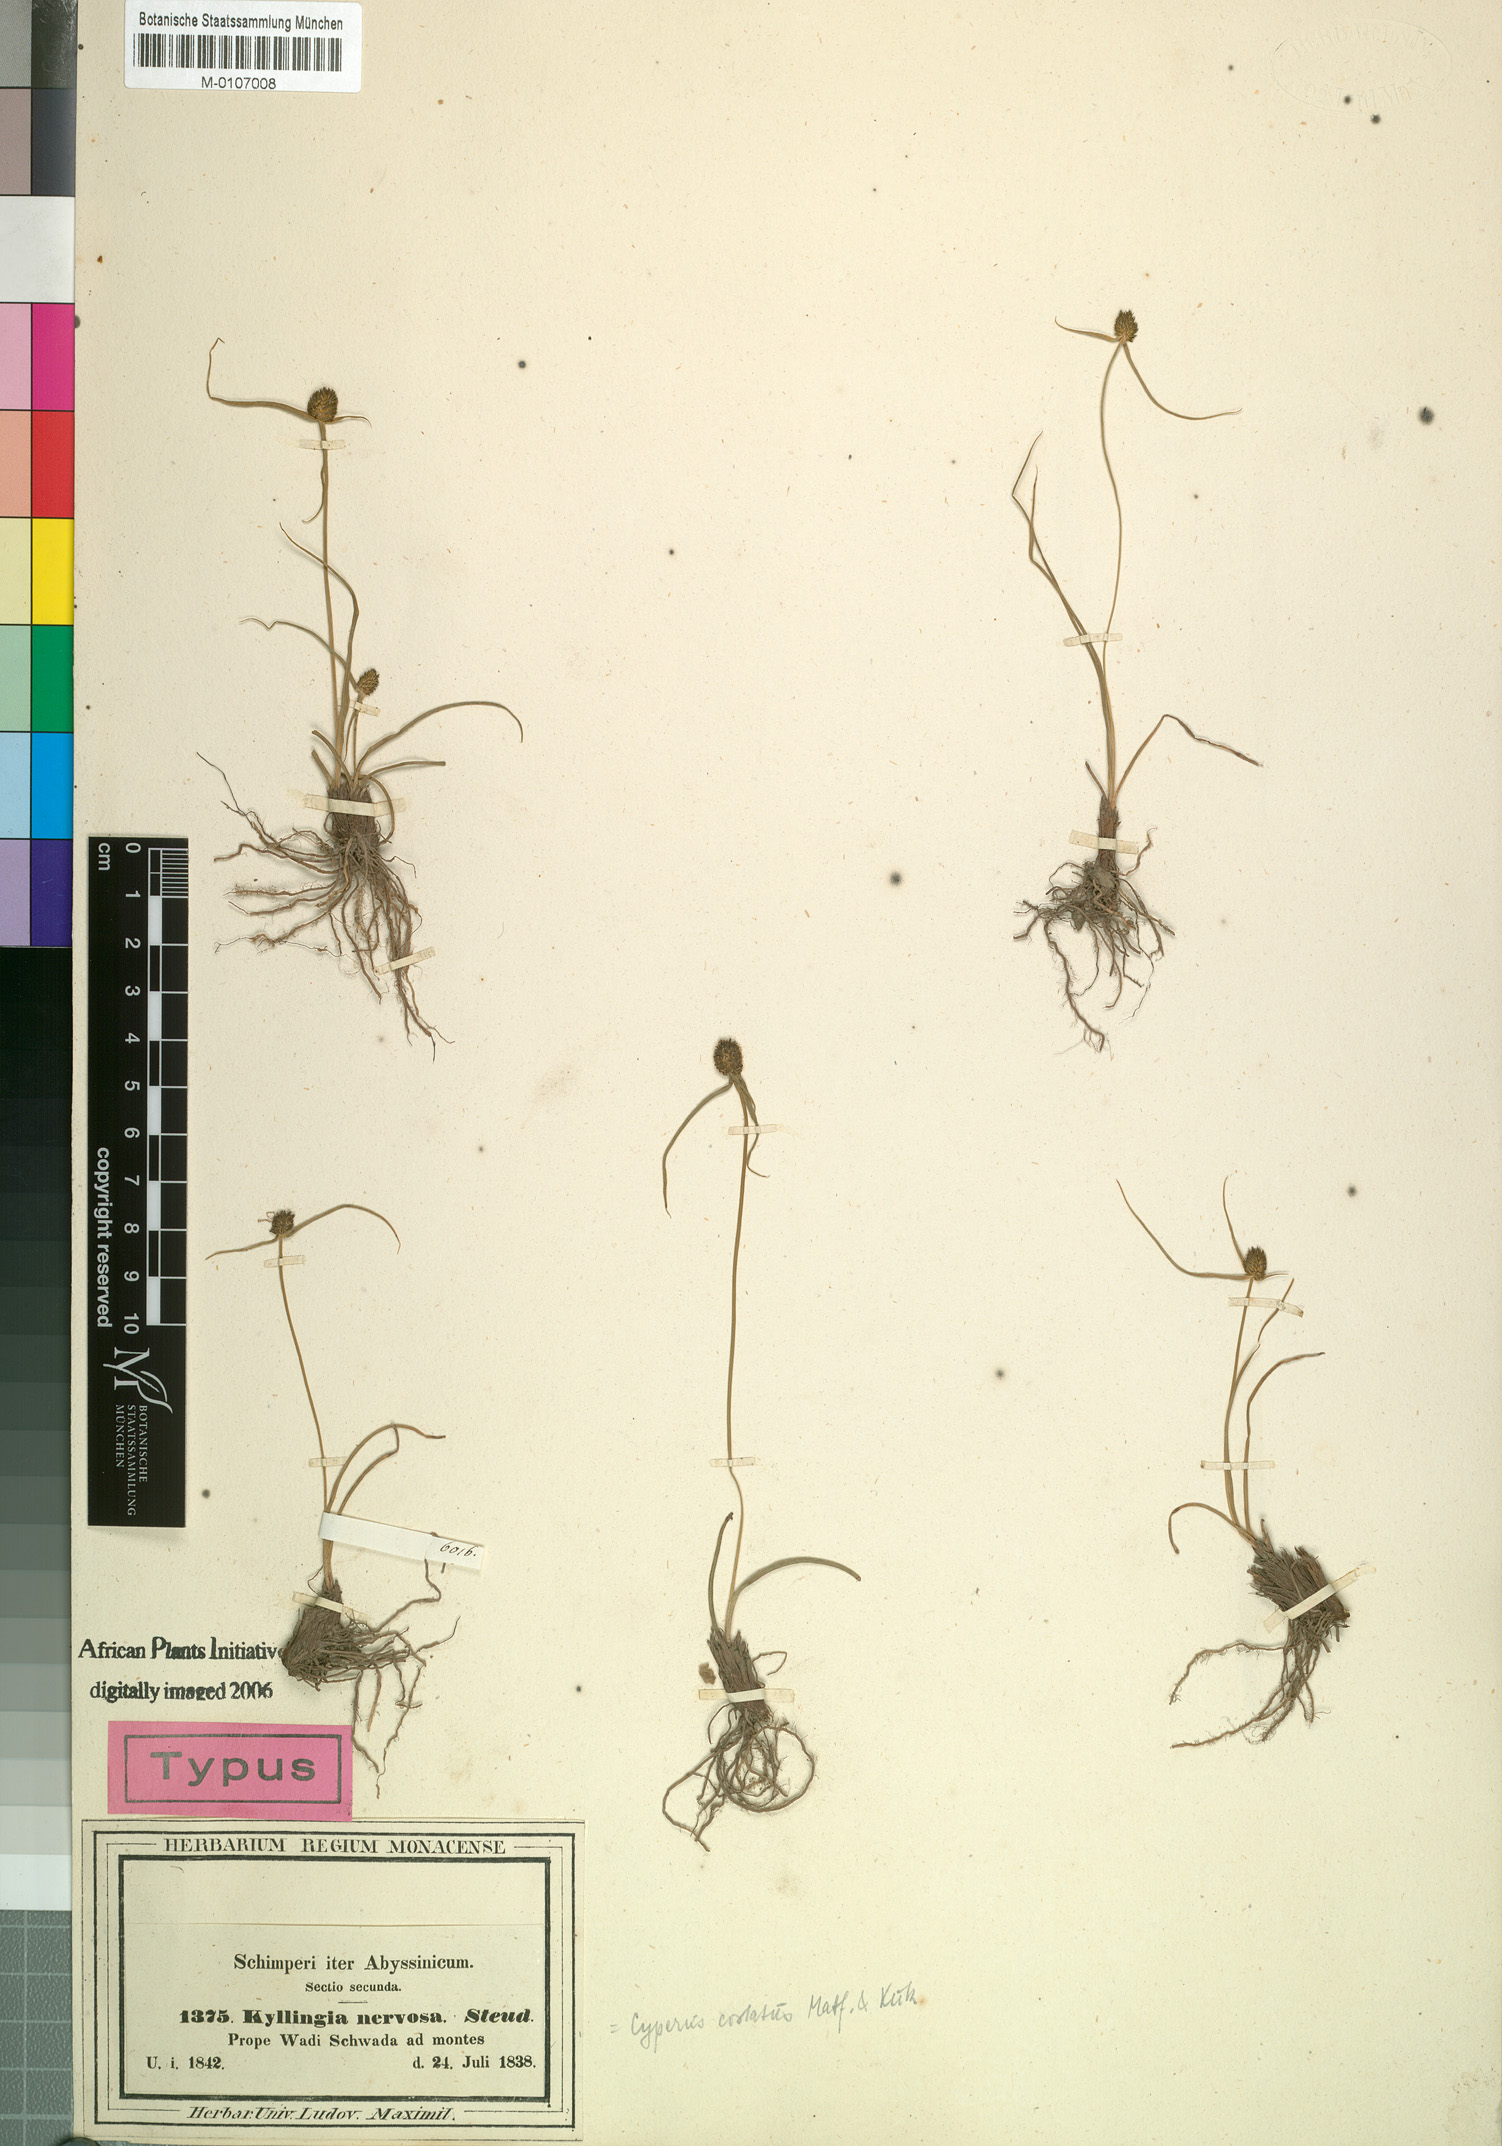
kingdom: Plantae
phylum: Tracheophyta
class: Liliopsida
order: Poales
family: Cyperaceae
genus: Cyperus
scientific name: Cyperus costatus
